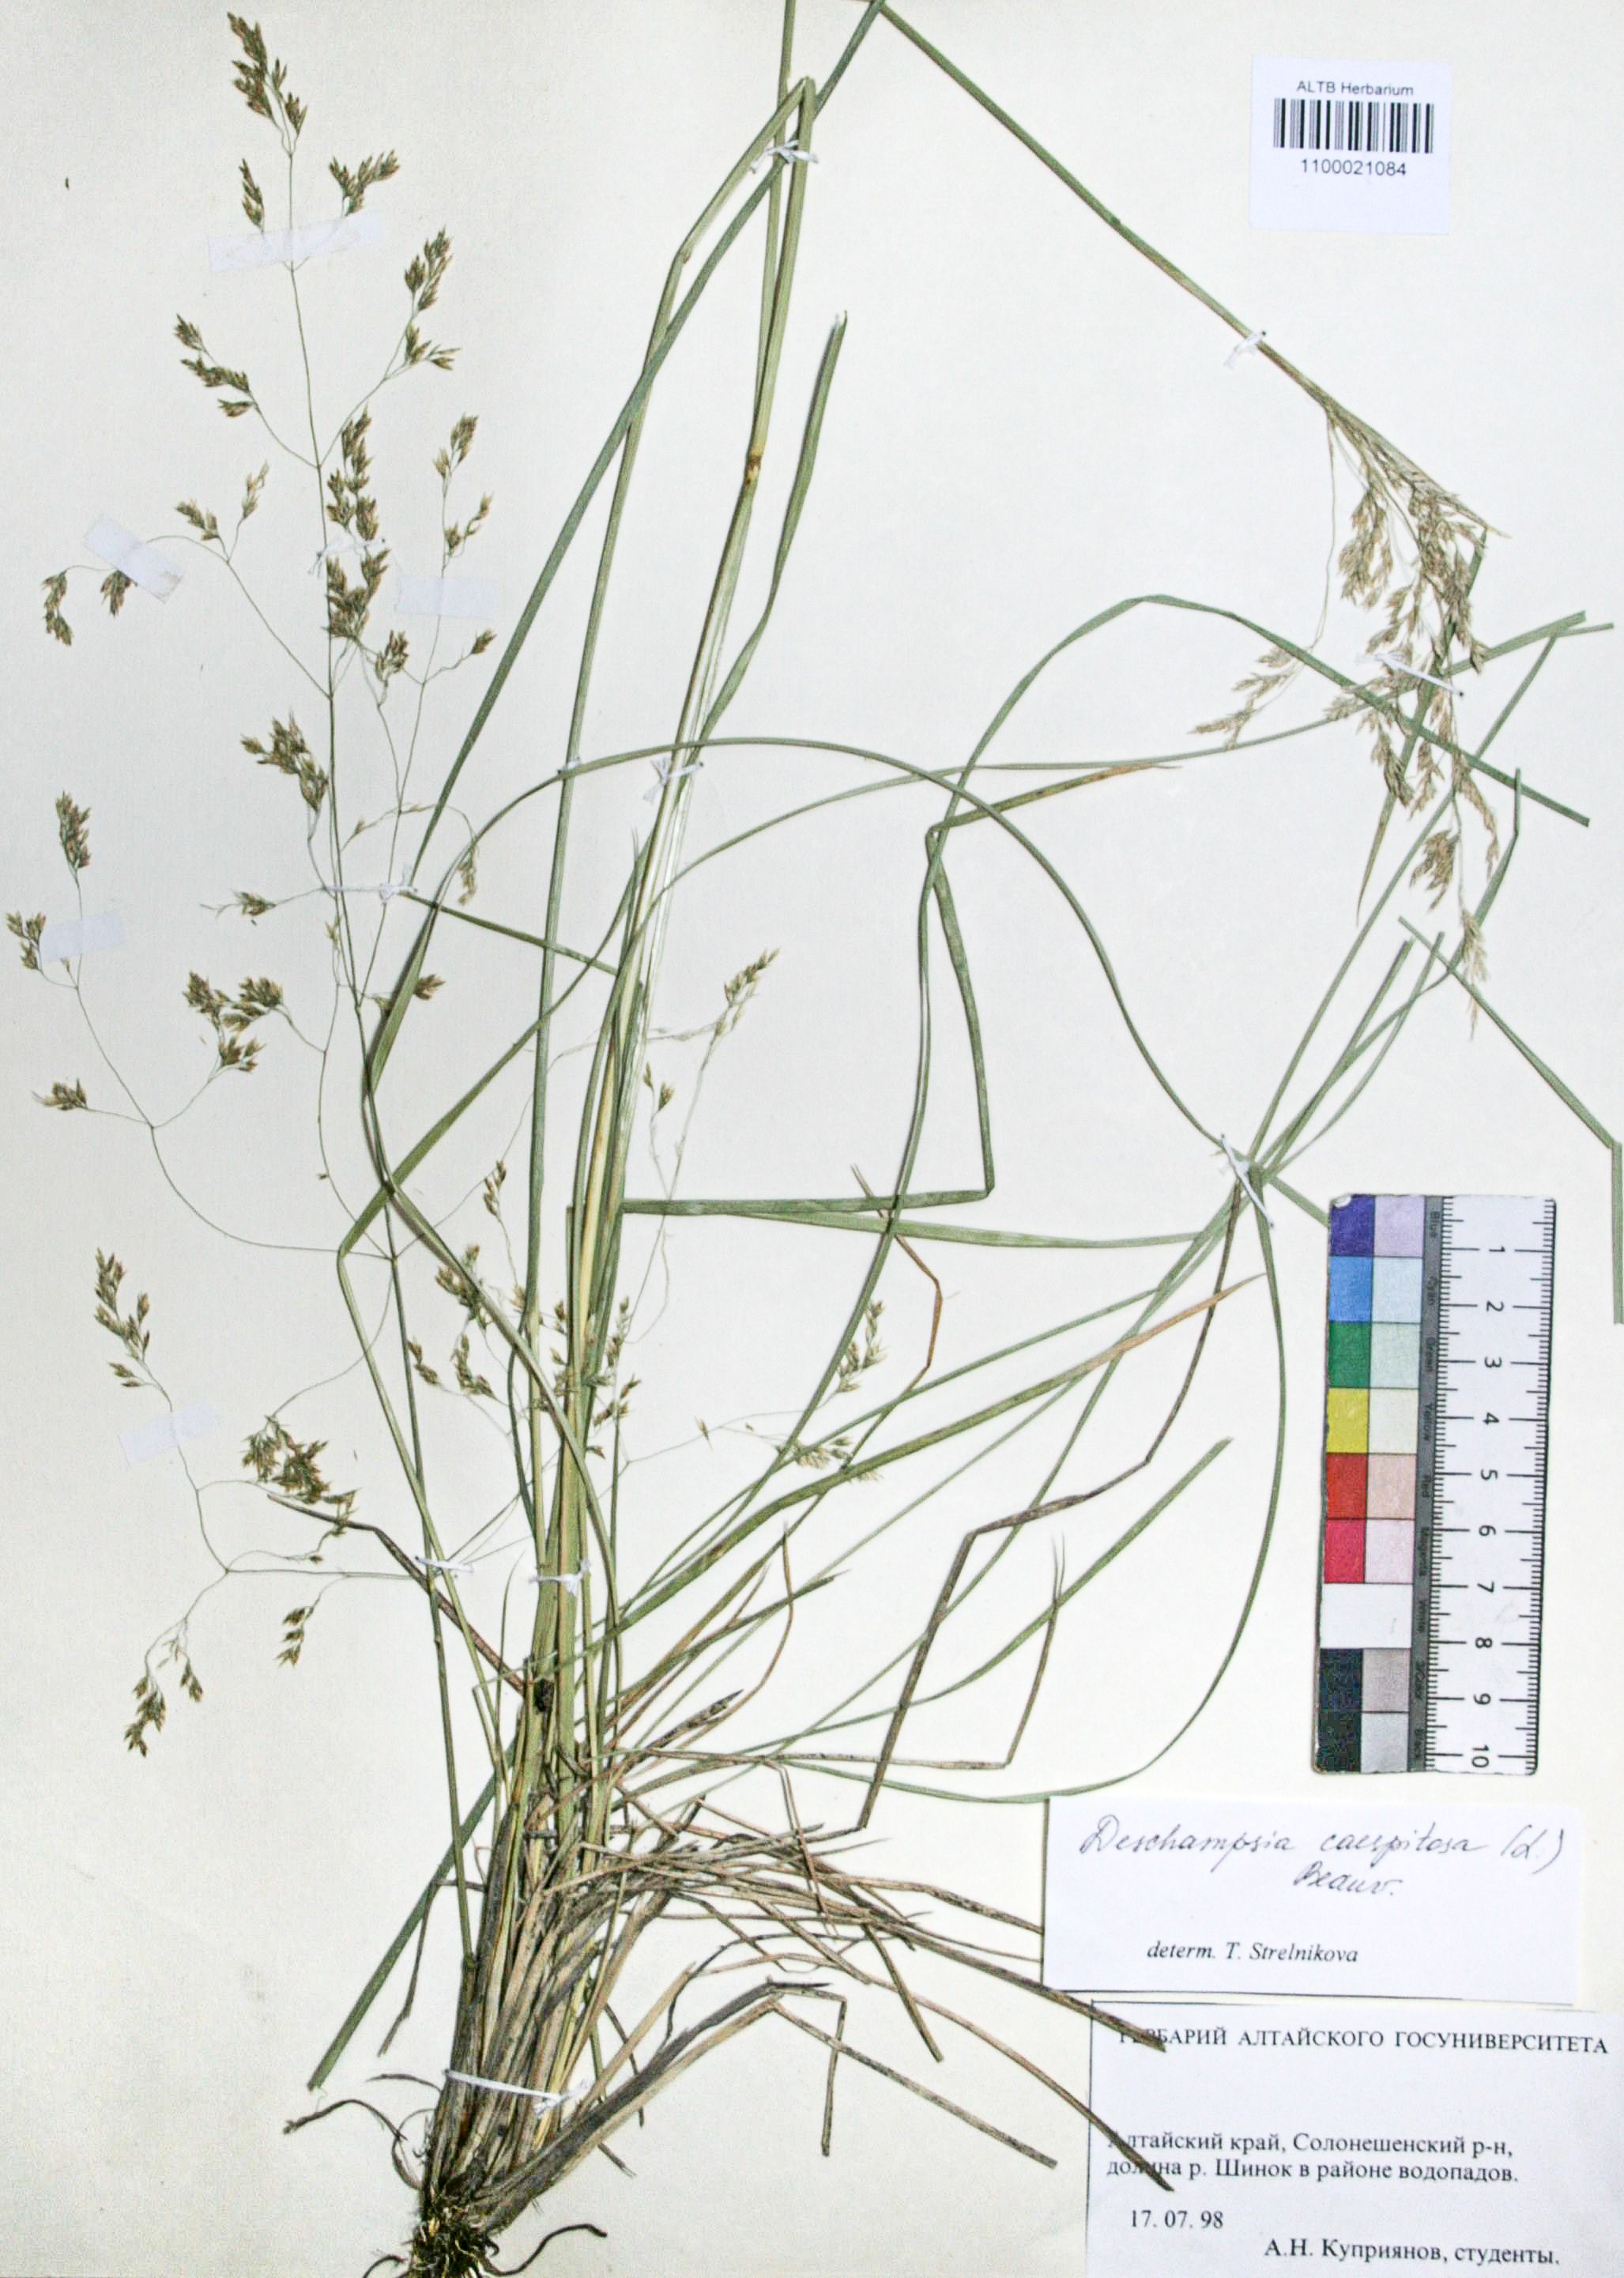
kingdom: Plantae
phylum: Tracheophyta
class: Liliopsida
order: Poales
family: Poaceae
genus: Deschampsia
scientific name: Deschampsia cespitosa
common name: Tufted hair-grass
